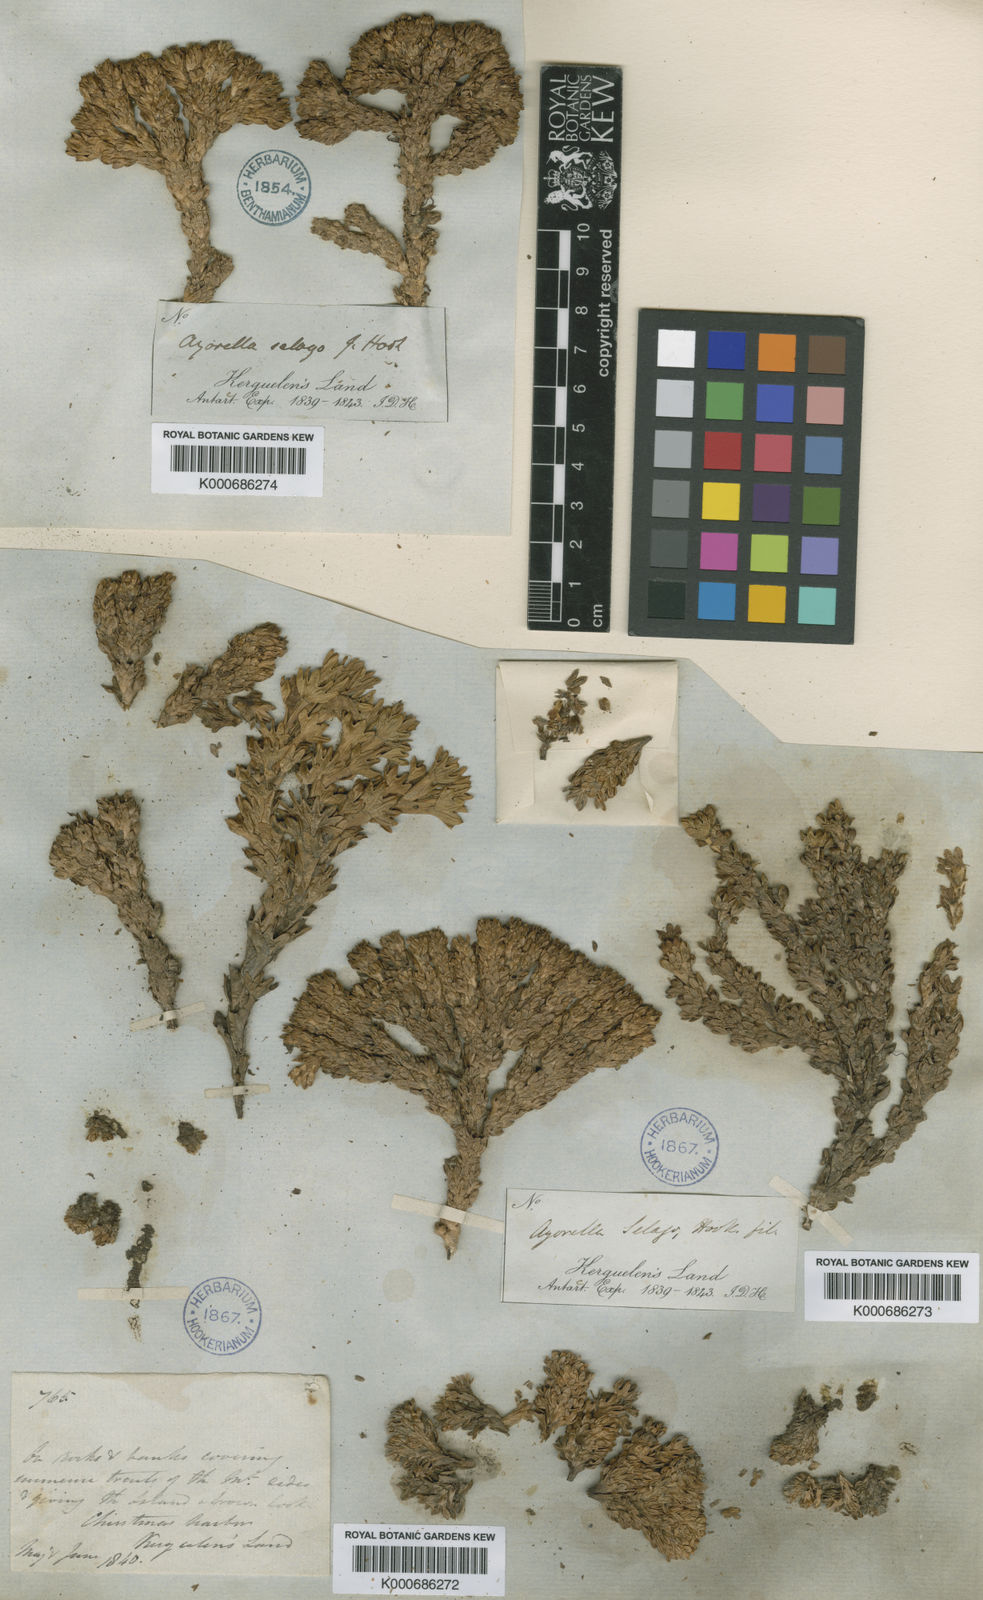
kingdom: Plantae
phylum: Tracheophyta
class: Magnoliopsida
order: Apiales
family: Apiaceae
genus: Azorella
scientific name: Azorella selago
